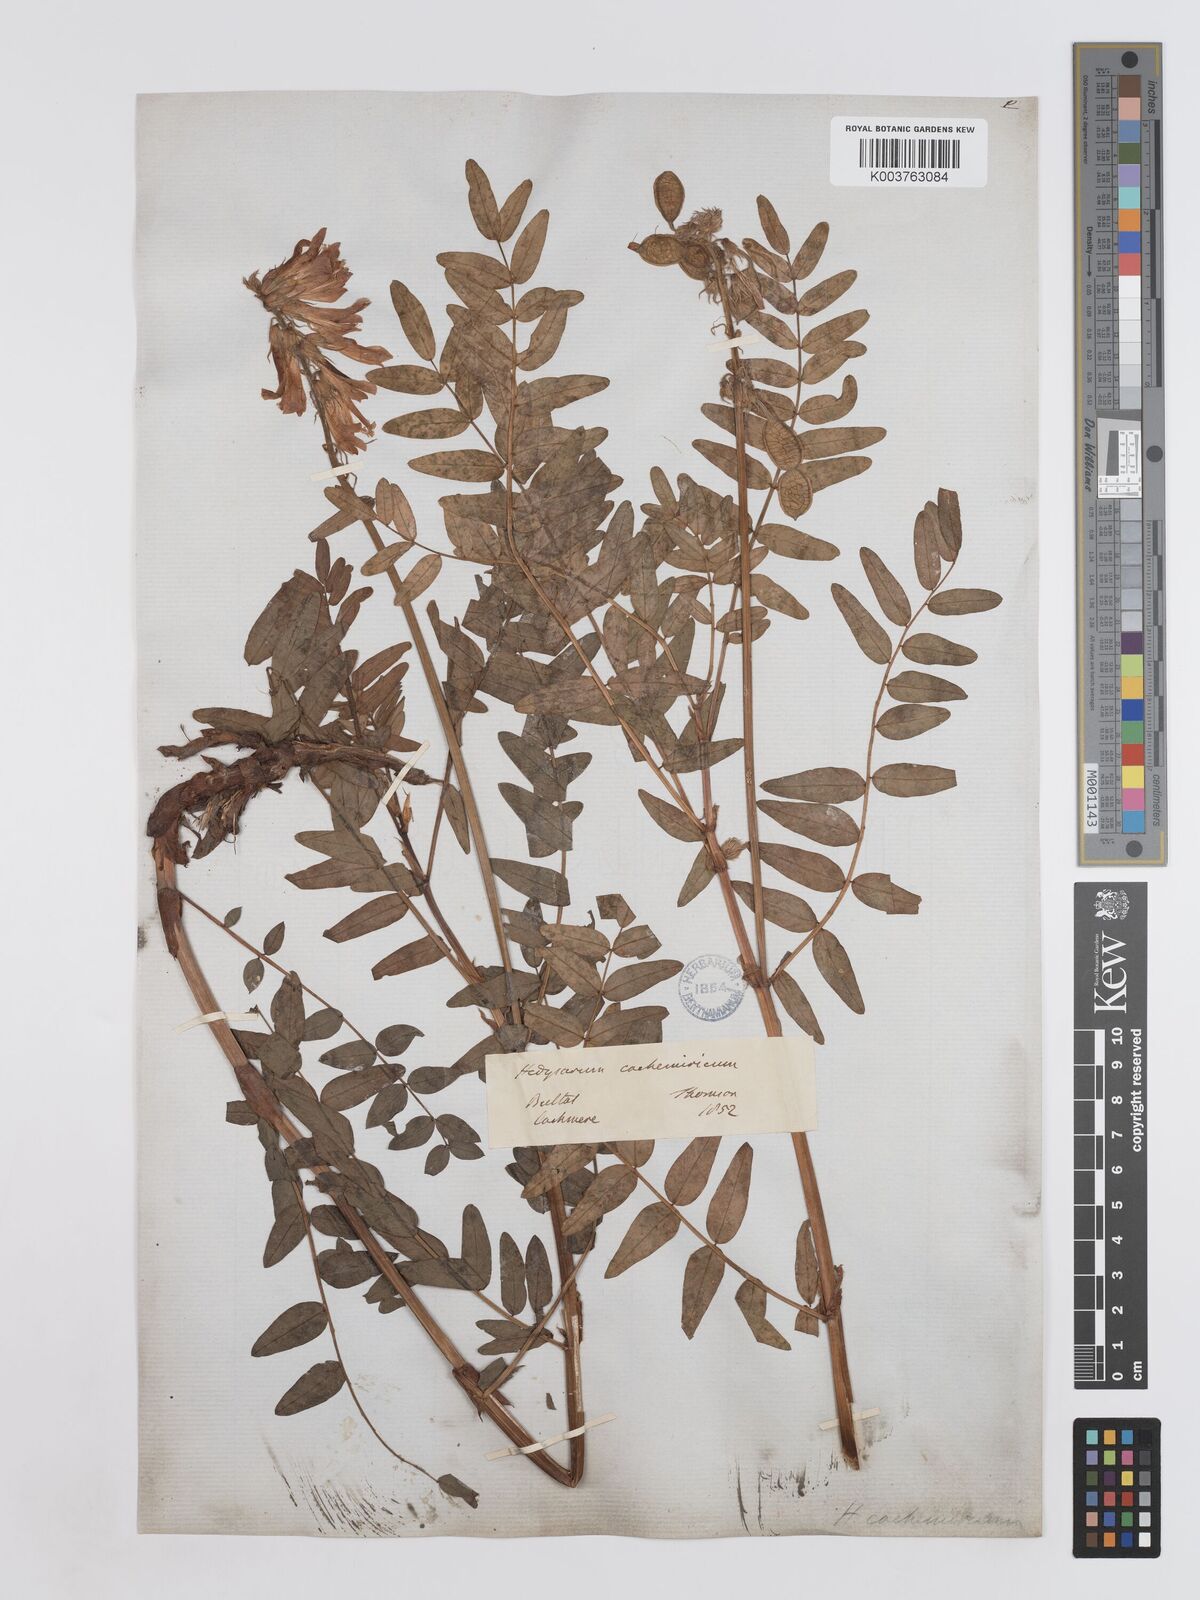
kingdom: Plantae
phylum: Tracheophyta
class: Magnoliopsida
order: Fabales
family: Fabaceae
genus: Hedysarum
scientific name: Hedysarum cachemirianum
